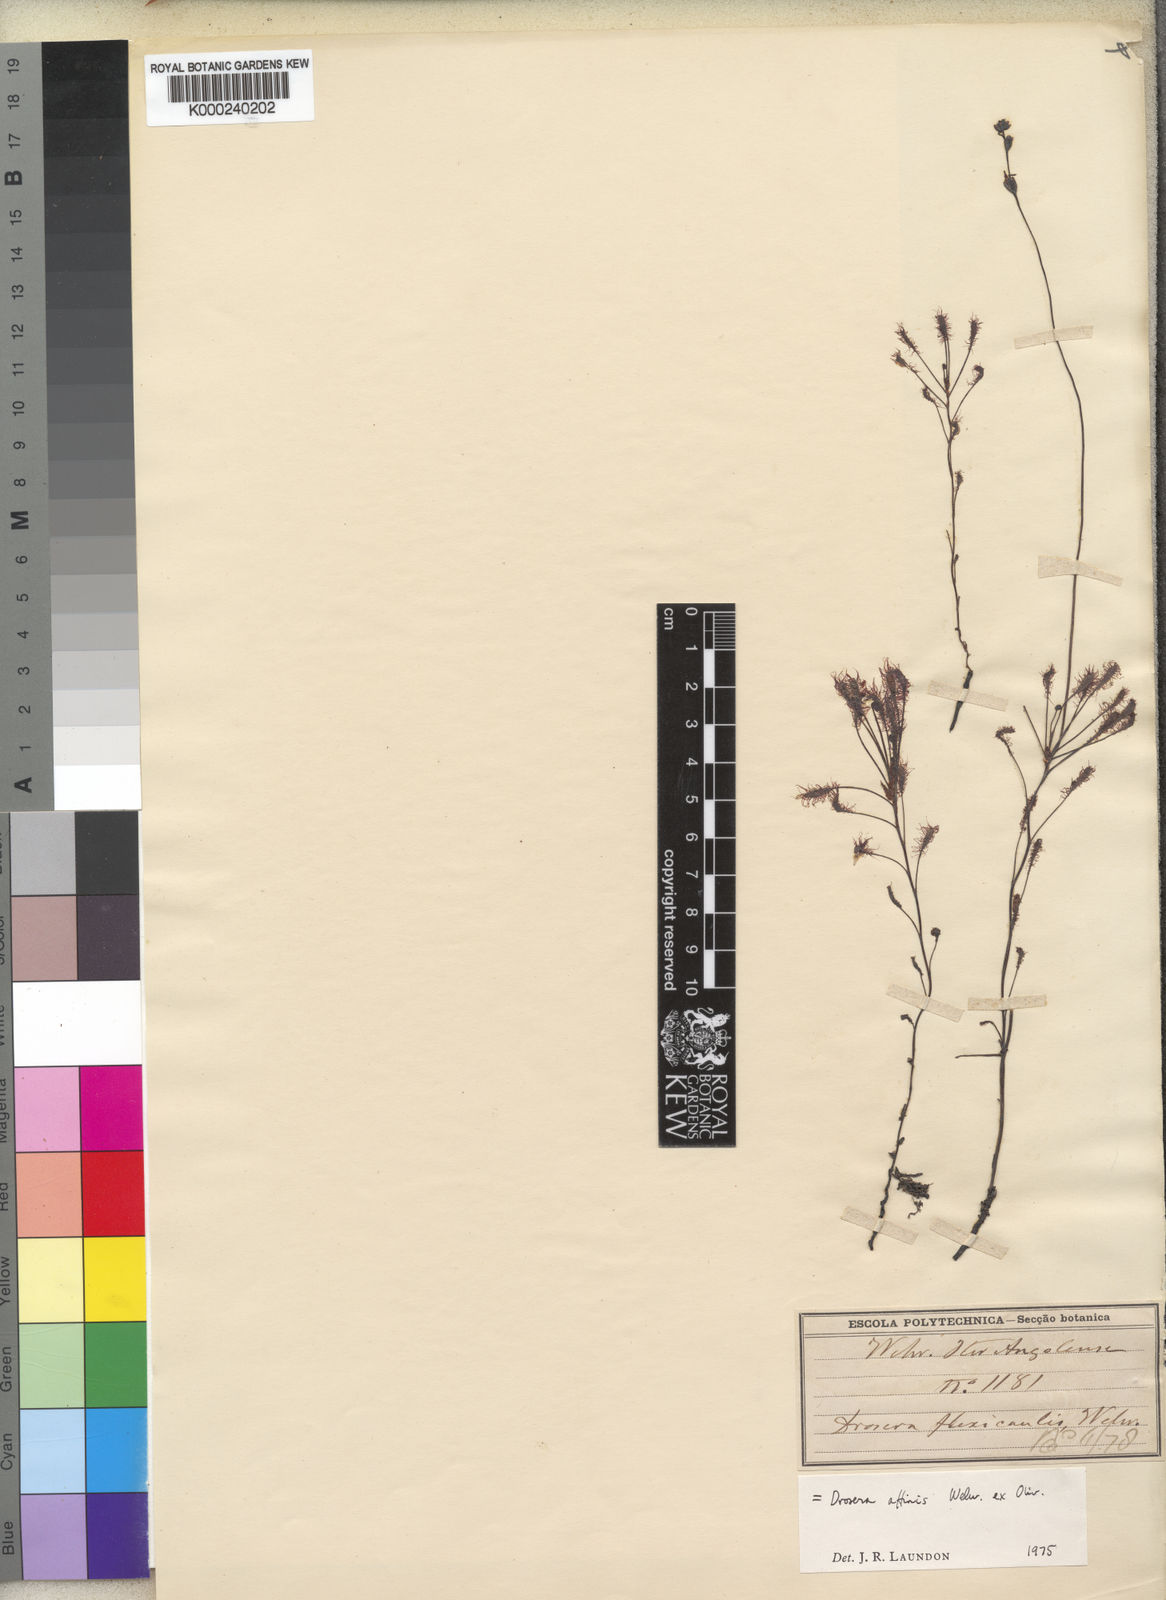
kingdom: Plantae
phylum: Tracheophyta
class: Magnoliopsida
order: Caryophyllales
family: Droseraceae
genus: Drosera
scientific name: Drosera affinis
